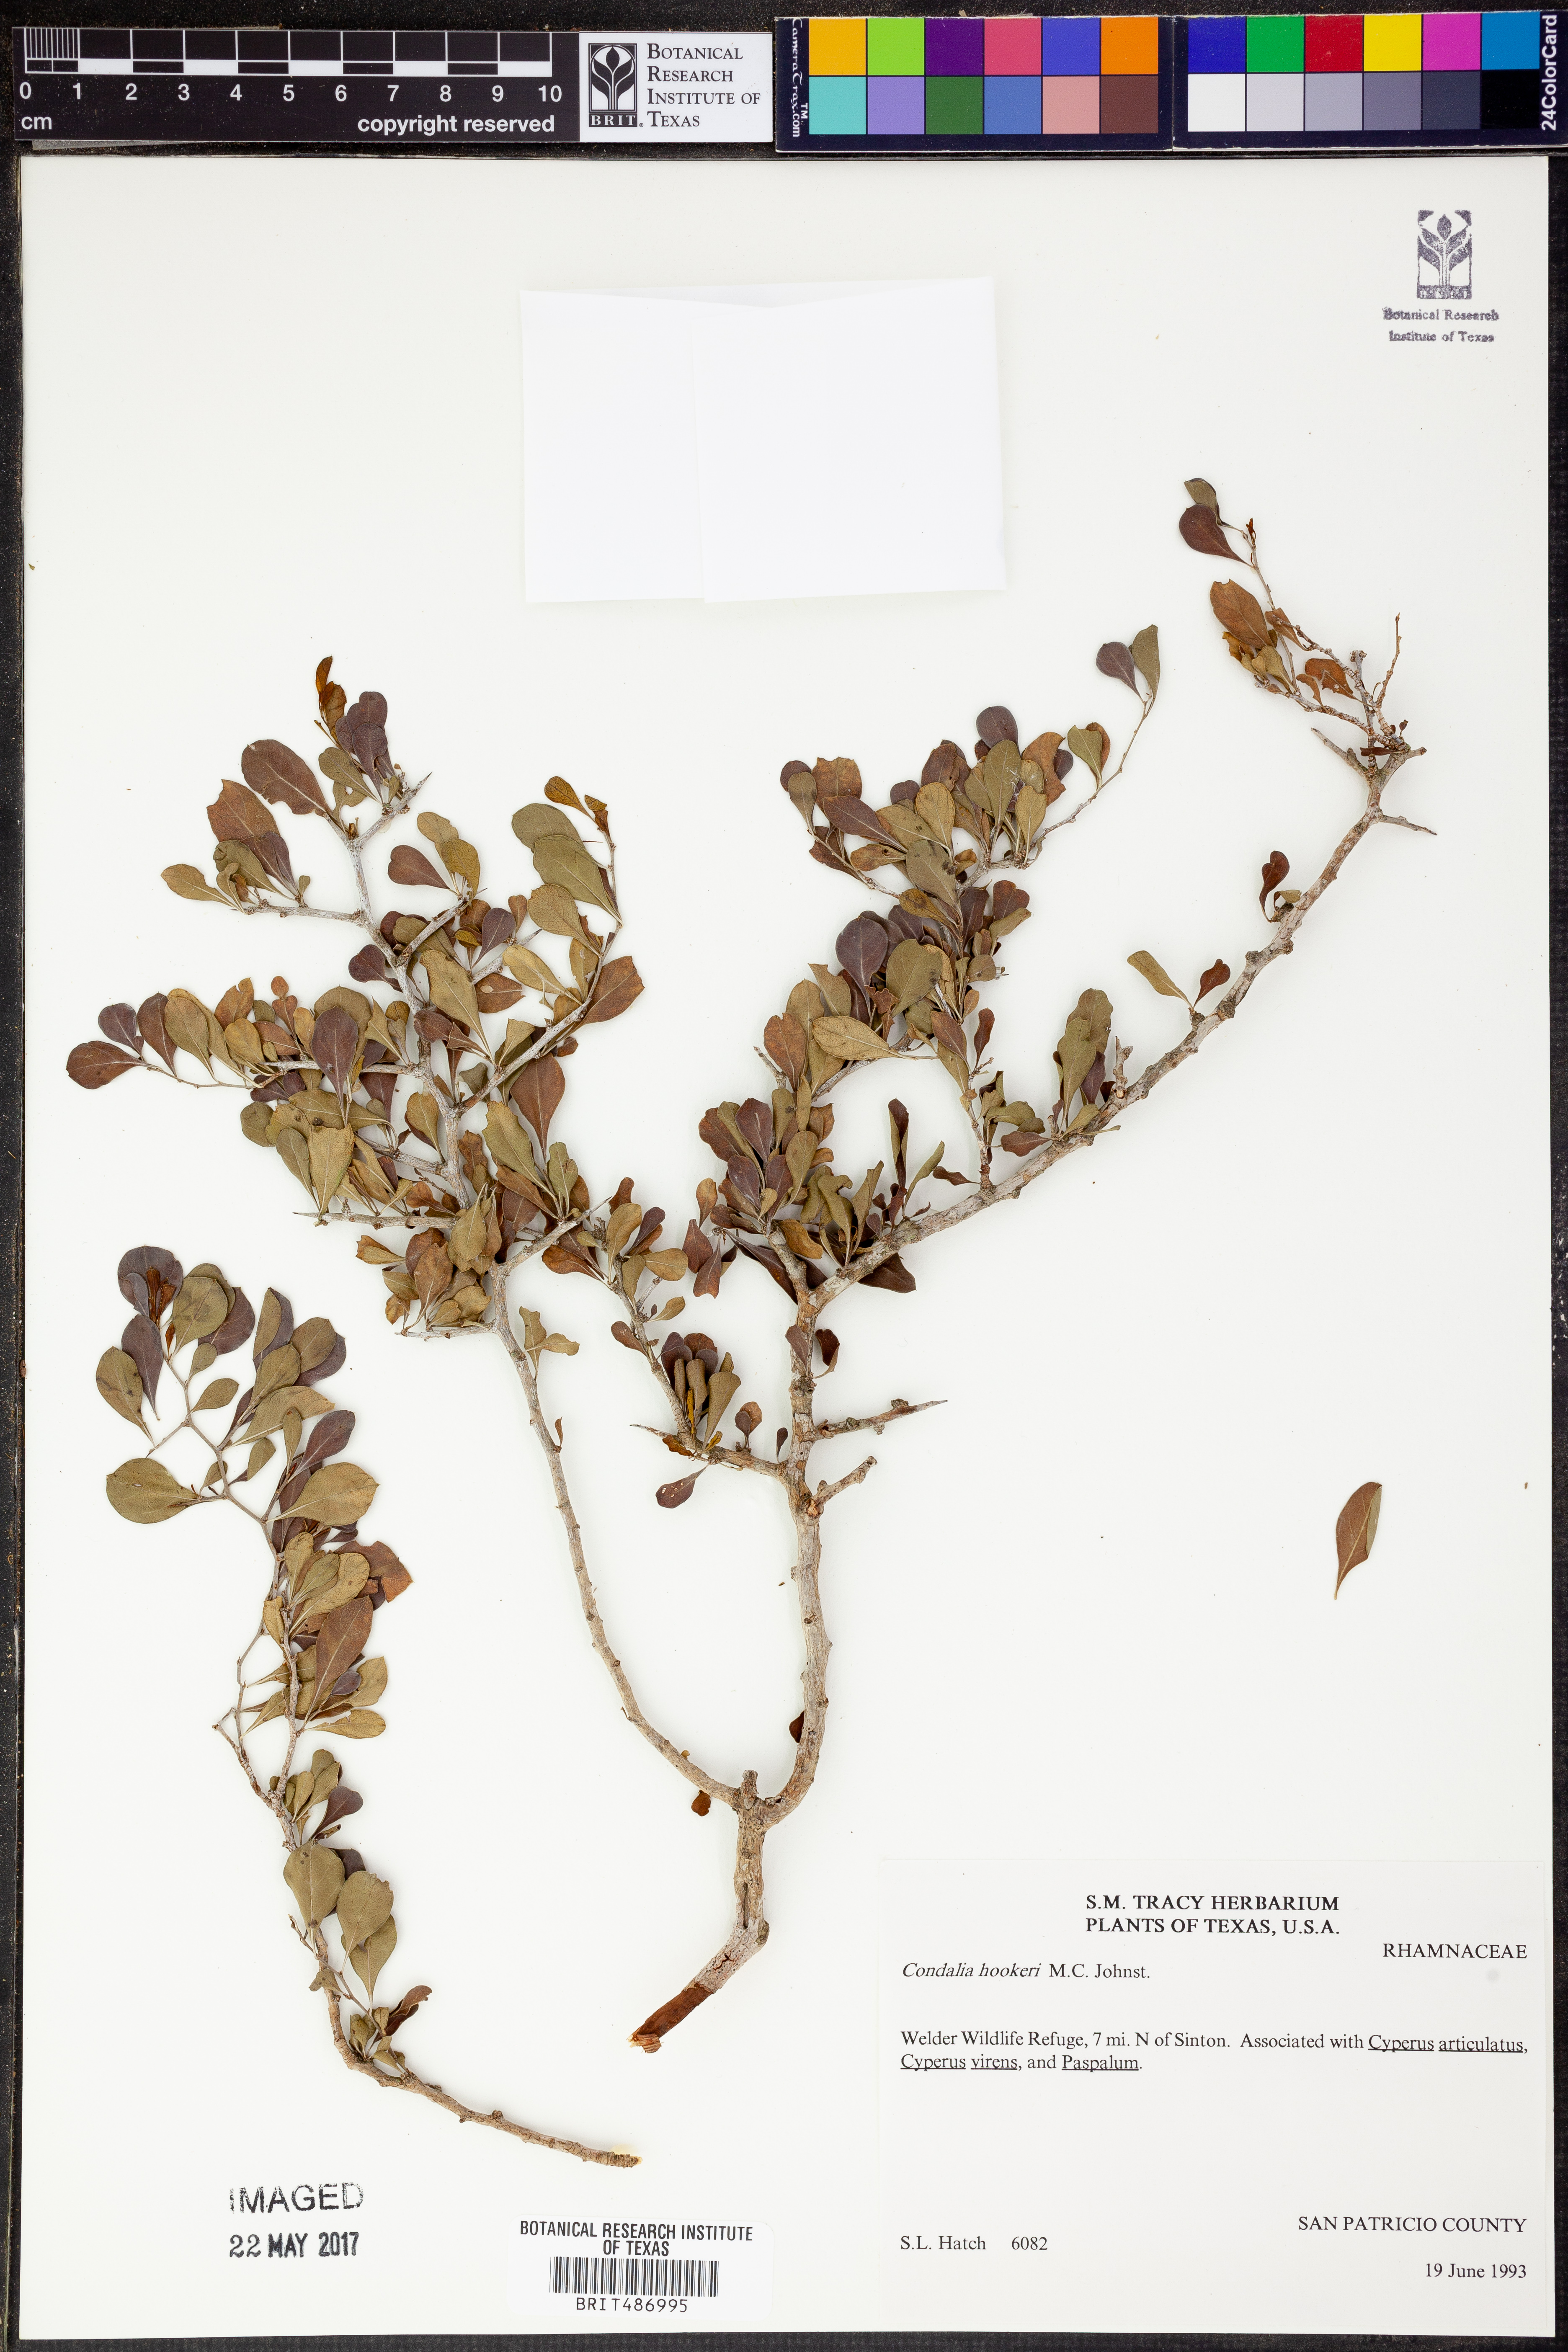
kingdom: Plantae
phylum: Tracheophyta
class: Magnoliopsida
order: Rosales
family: Rhamnaceae
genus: Condalia
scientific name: Condalia hookeri
